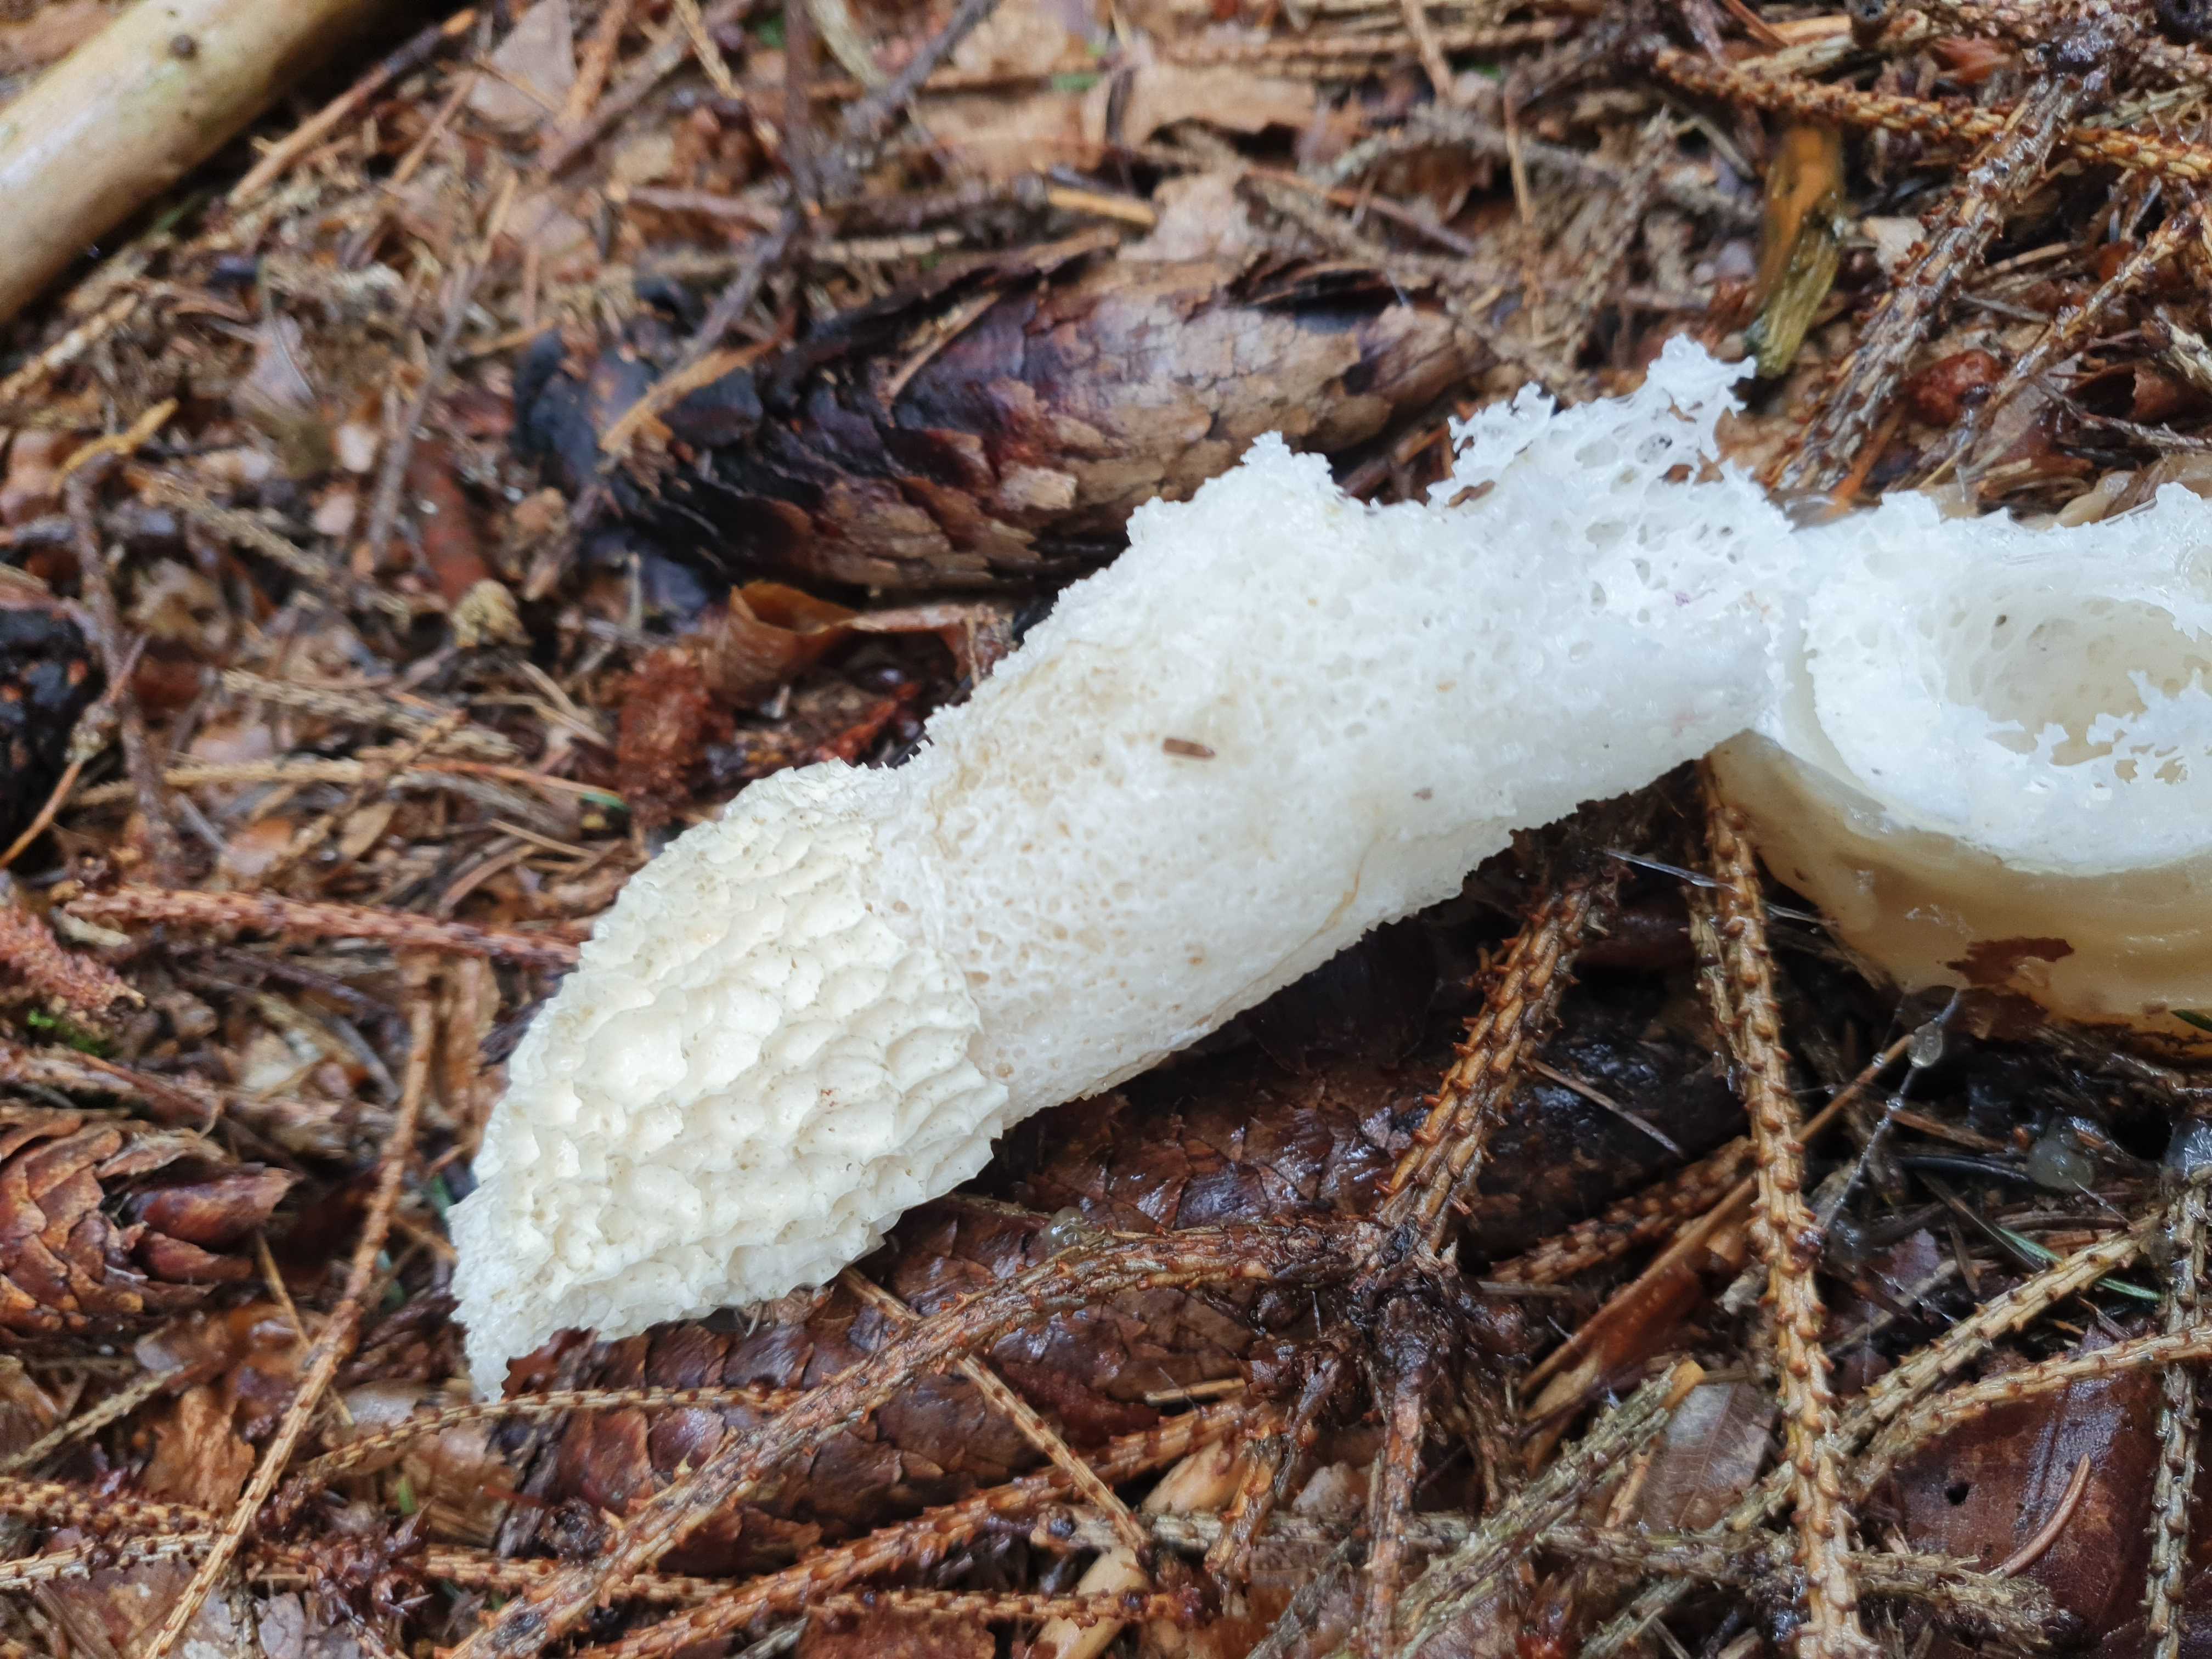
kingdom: Fungi
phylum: Basidiomycota
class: Agaricomycetes
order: Phallales
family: Phallaceae
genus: Phallus
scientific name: Phallus impudicus
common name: almindelig stinksvamp
